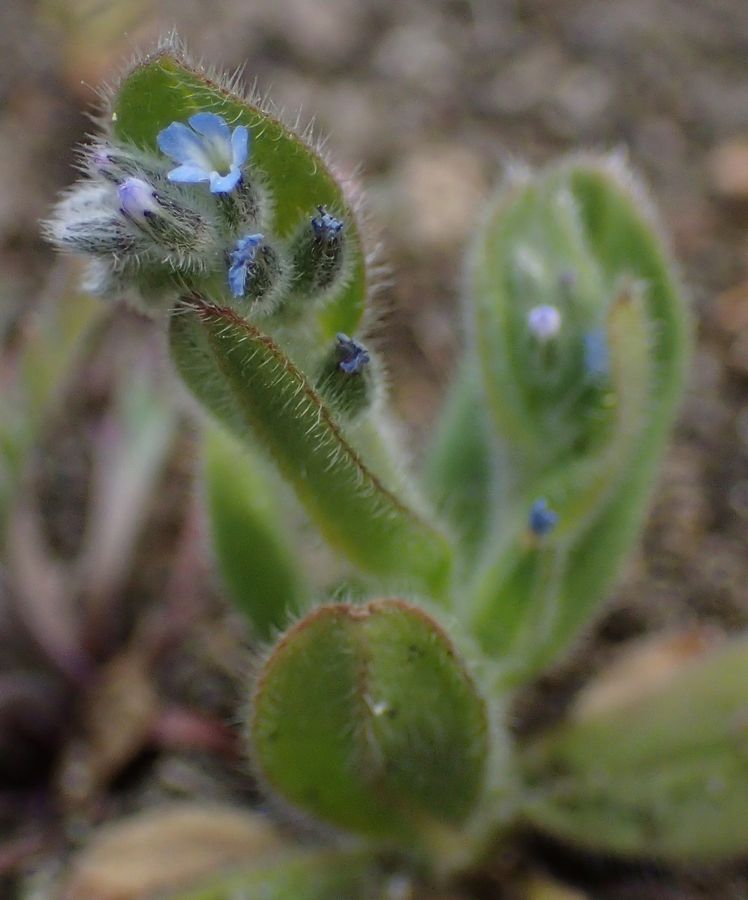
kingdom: Plantae
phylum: Tracheophyta
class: Magnoliopsida
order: Boraginales
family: Boraginaceae
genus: Lycopsis
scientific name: Lycopsis arvensis
